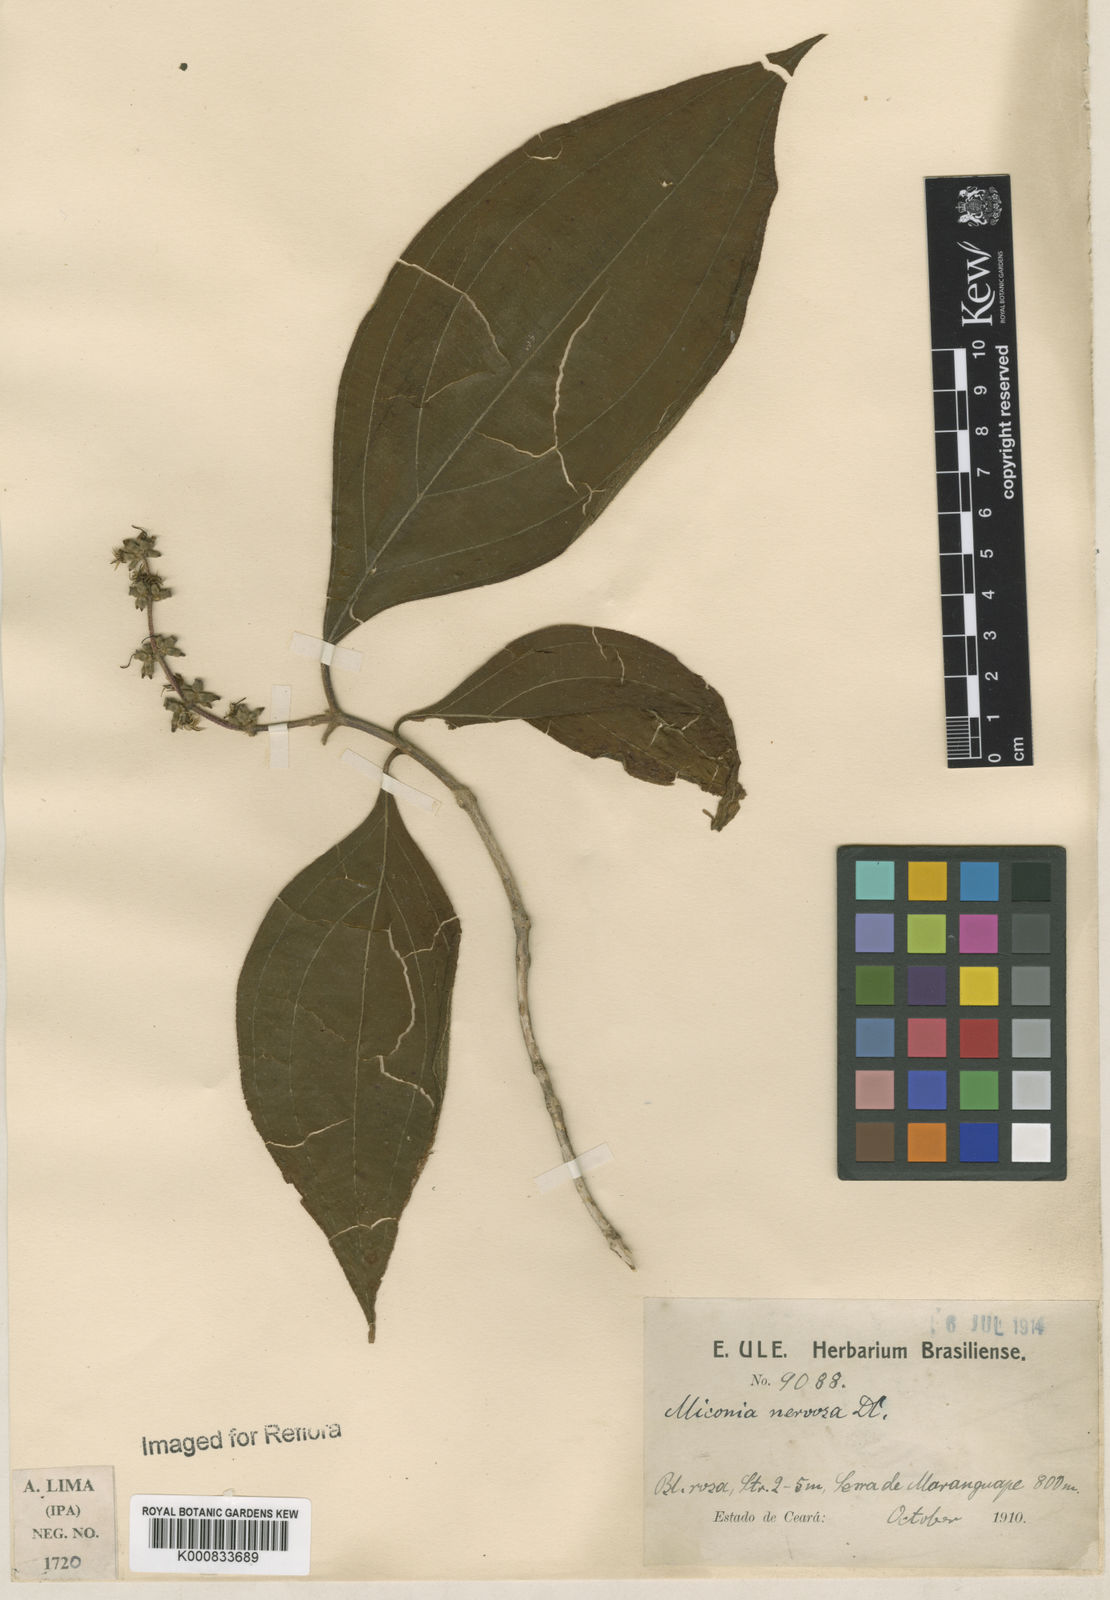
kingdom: Plantae
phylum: Tracheophyta
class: Magnoliopsida
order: Myrtales
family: Melastomataceae
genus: Miconia
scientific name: Miconia
